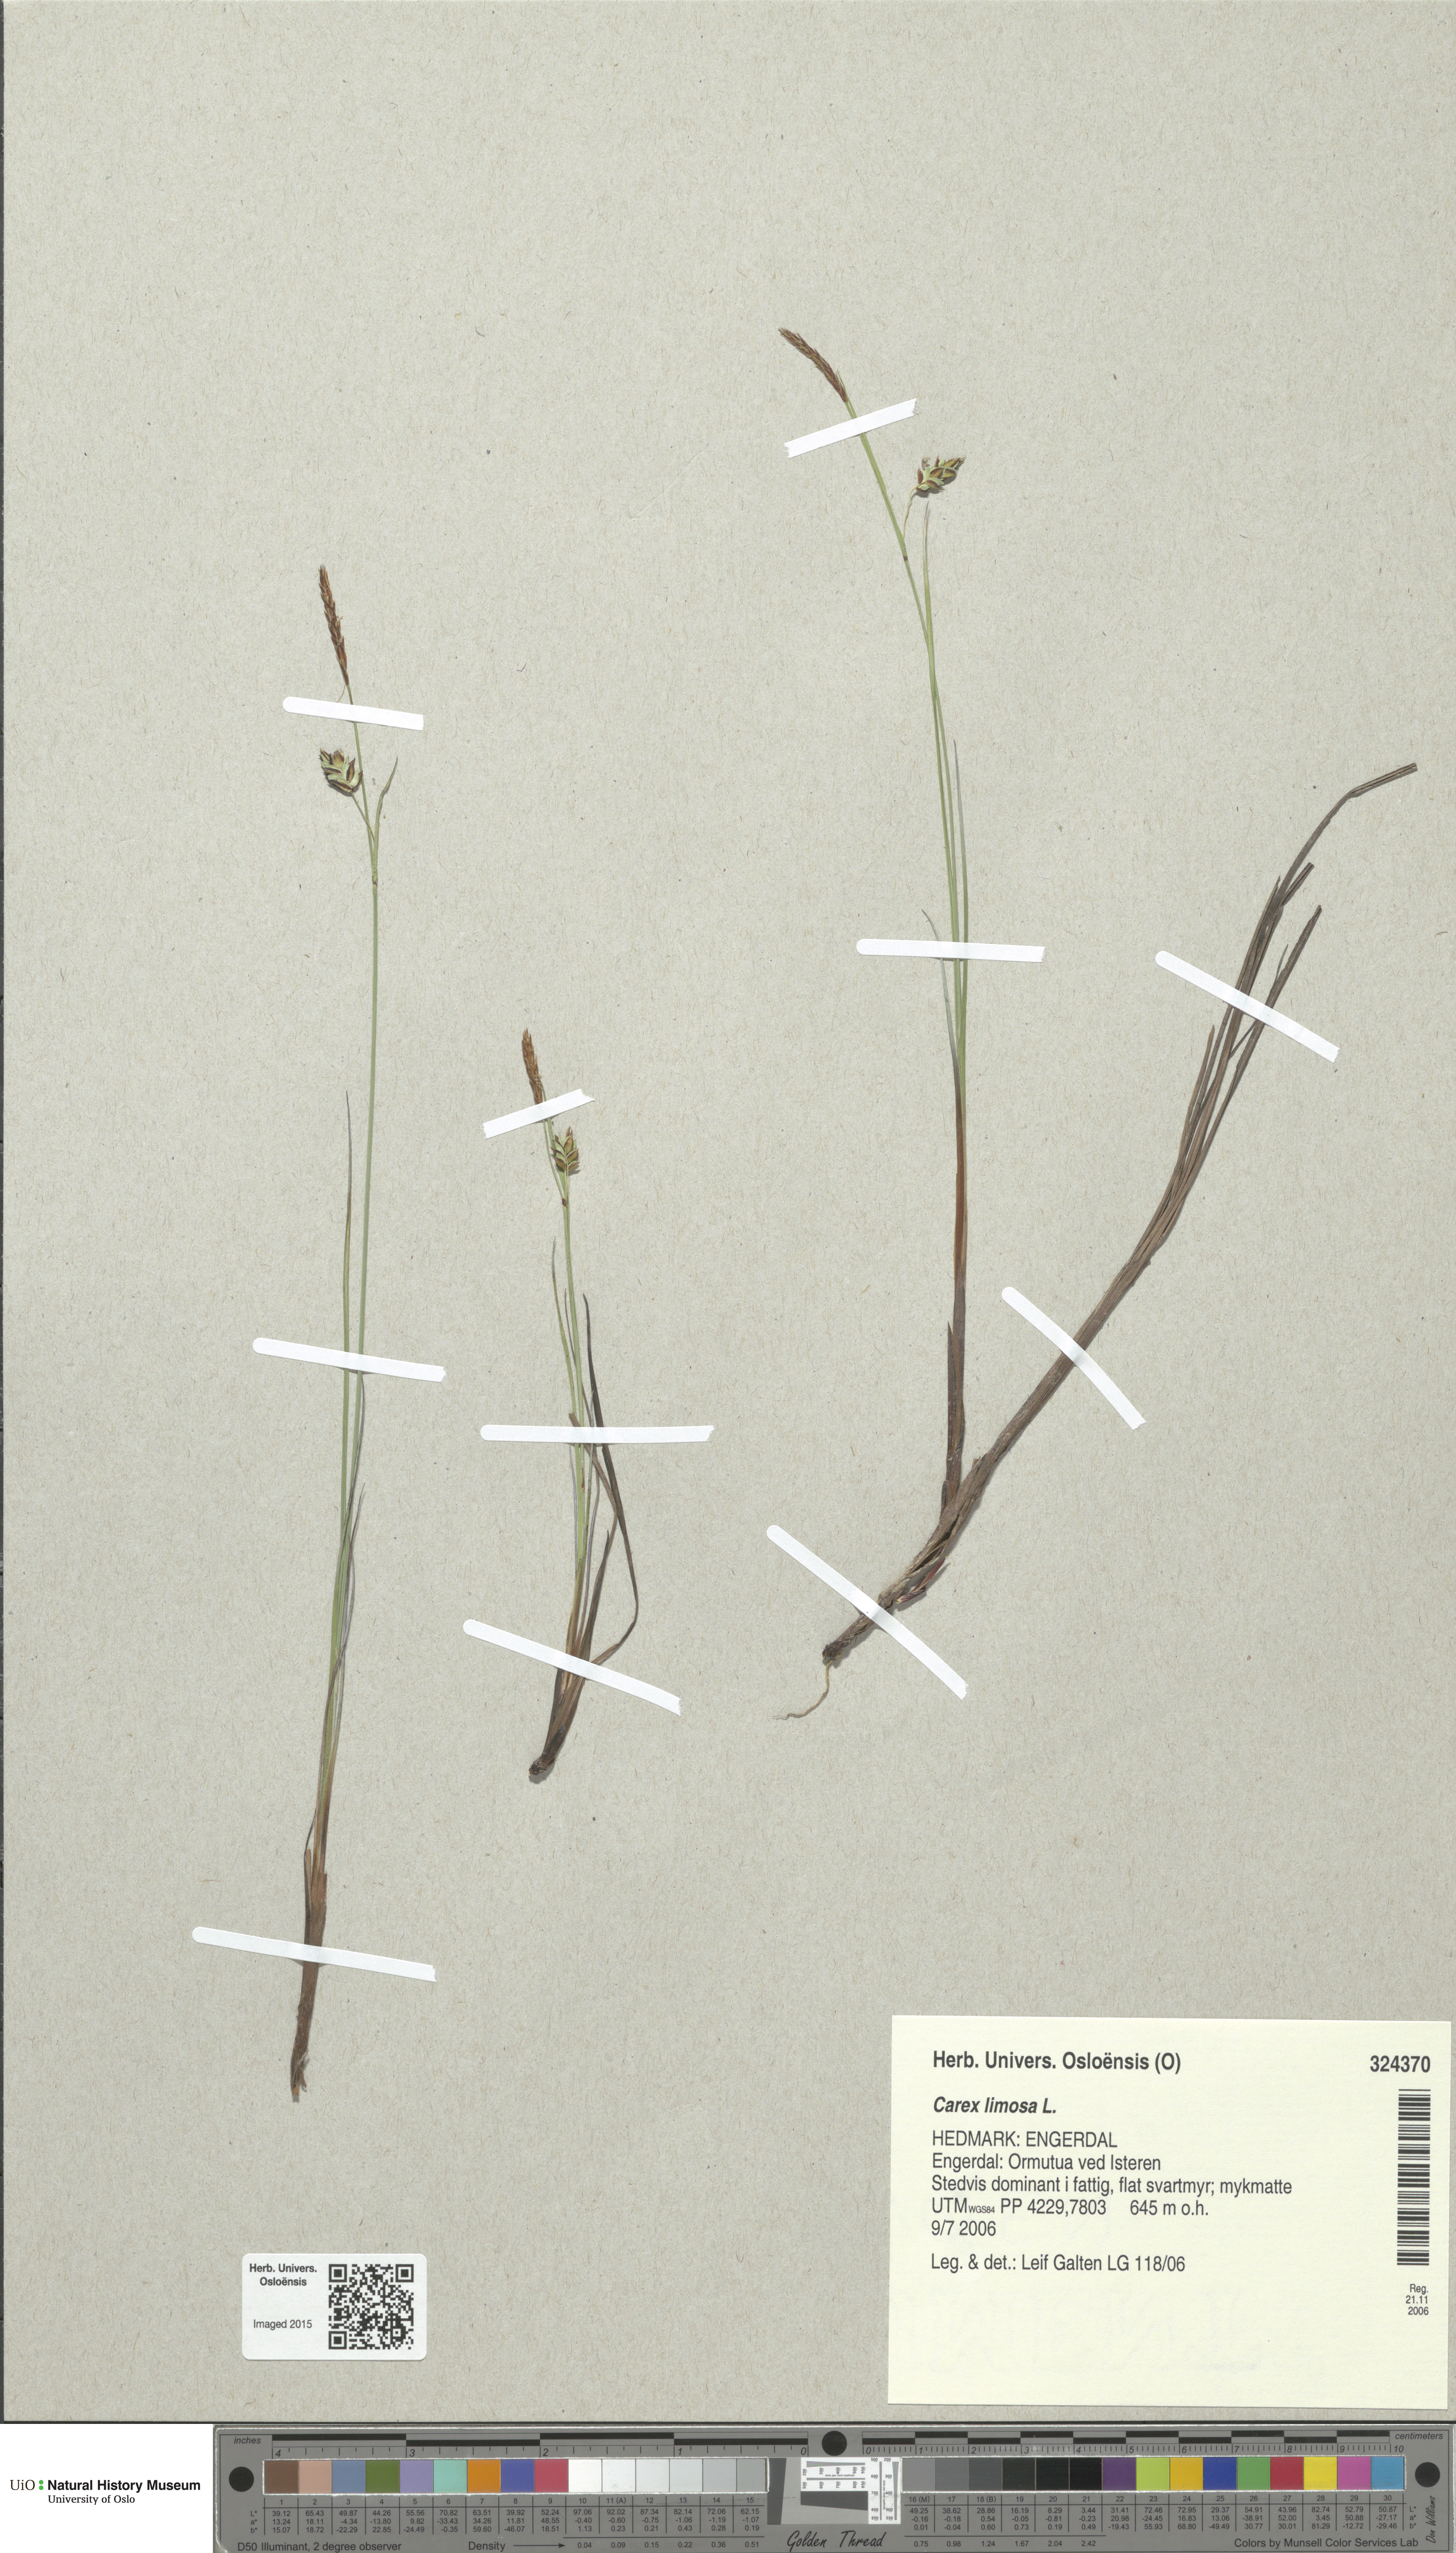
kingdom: Plantae
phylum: Tracheophyta
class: Liliopsida
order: Poales
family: Cyperaceae
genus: Carex
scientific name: Carex limosa
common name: Bog sedge
